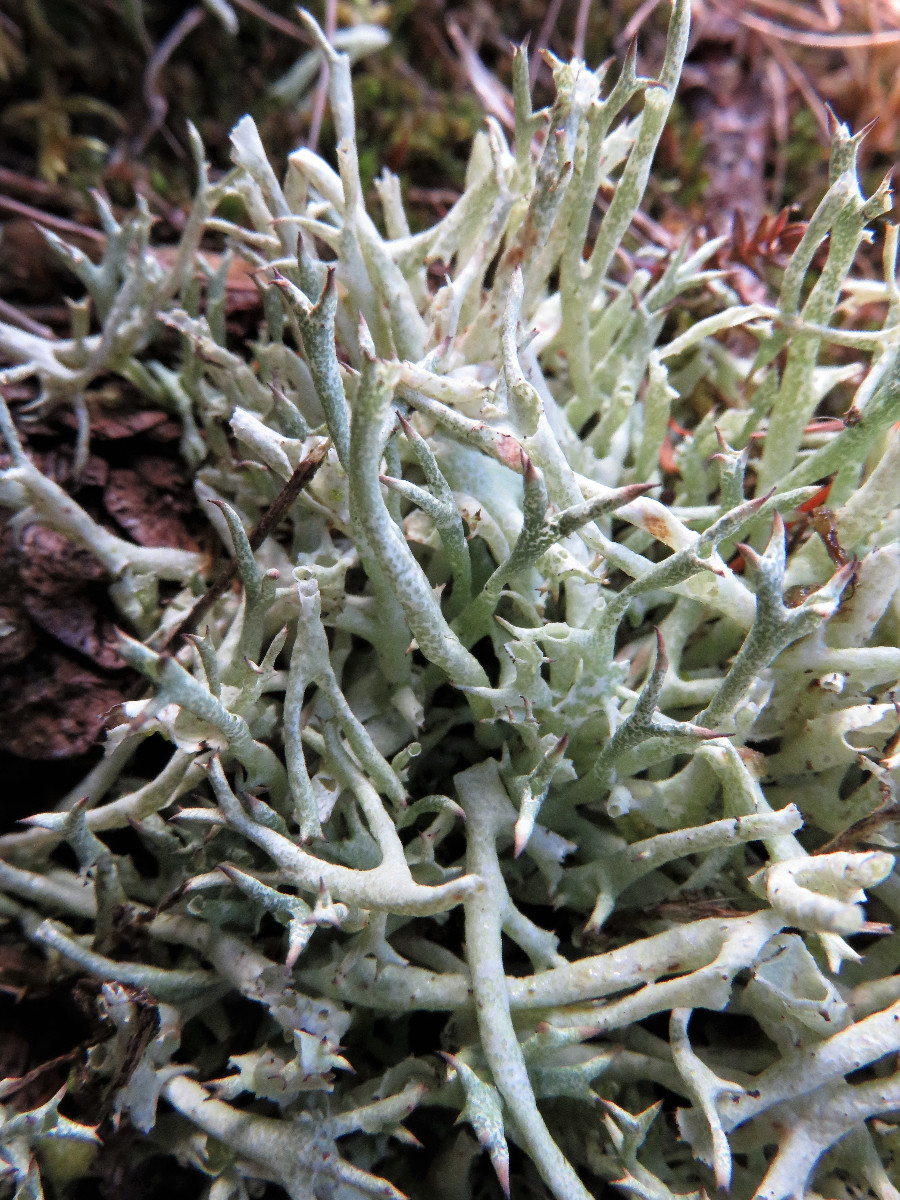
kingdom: Fungi
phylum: Ascomycota
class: Lecanoromycetes
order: Lecanorales
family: Cladoniaceae
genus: Cladonia
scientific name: Cladonia uncialis
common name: pigget bægerlav
